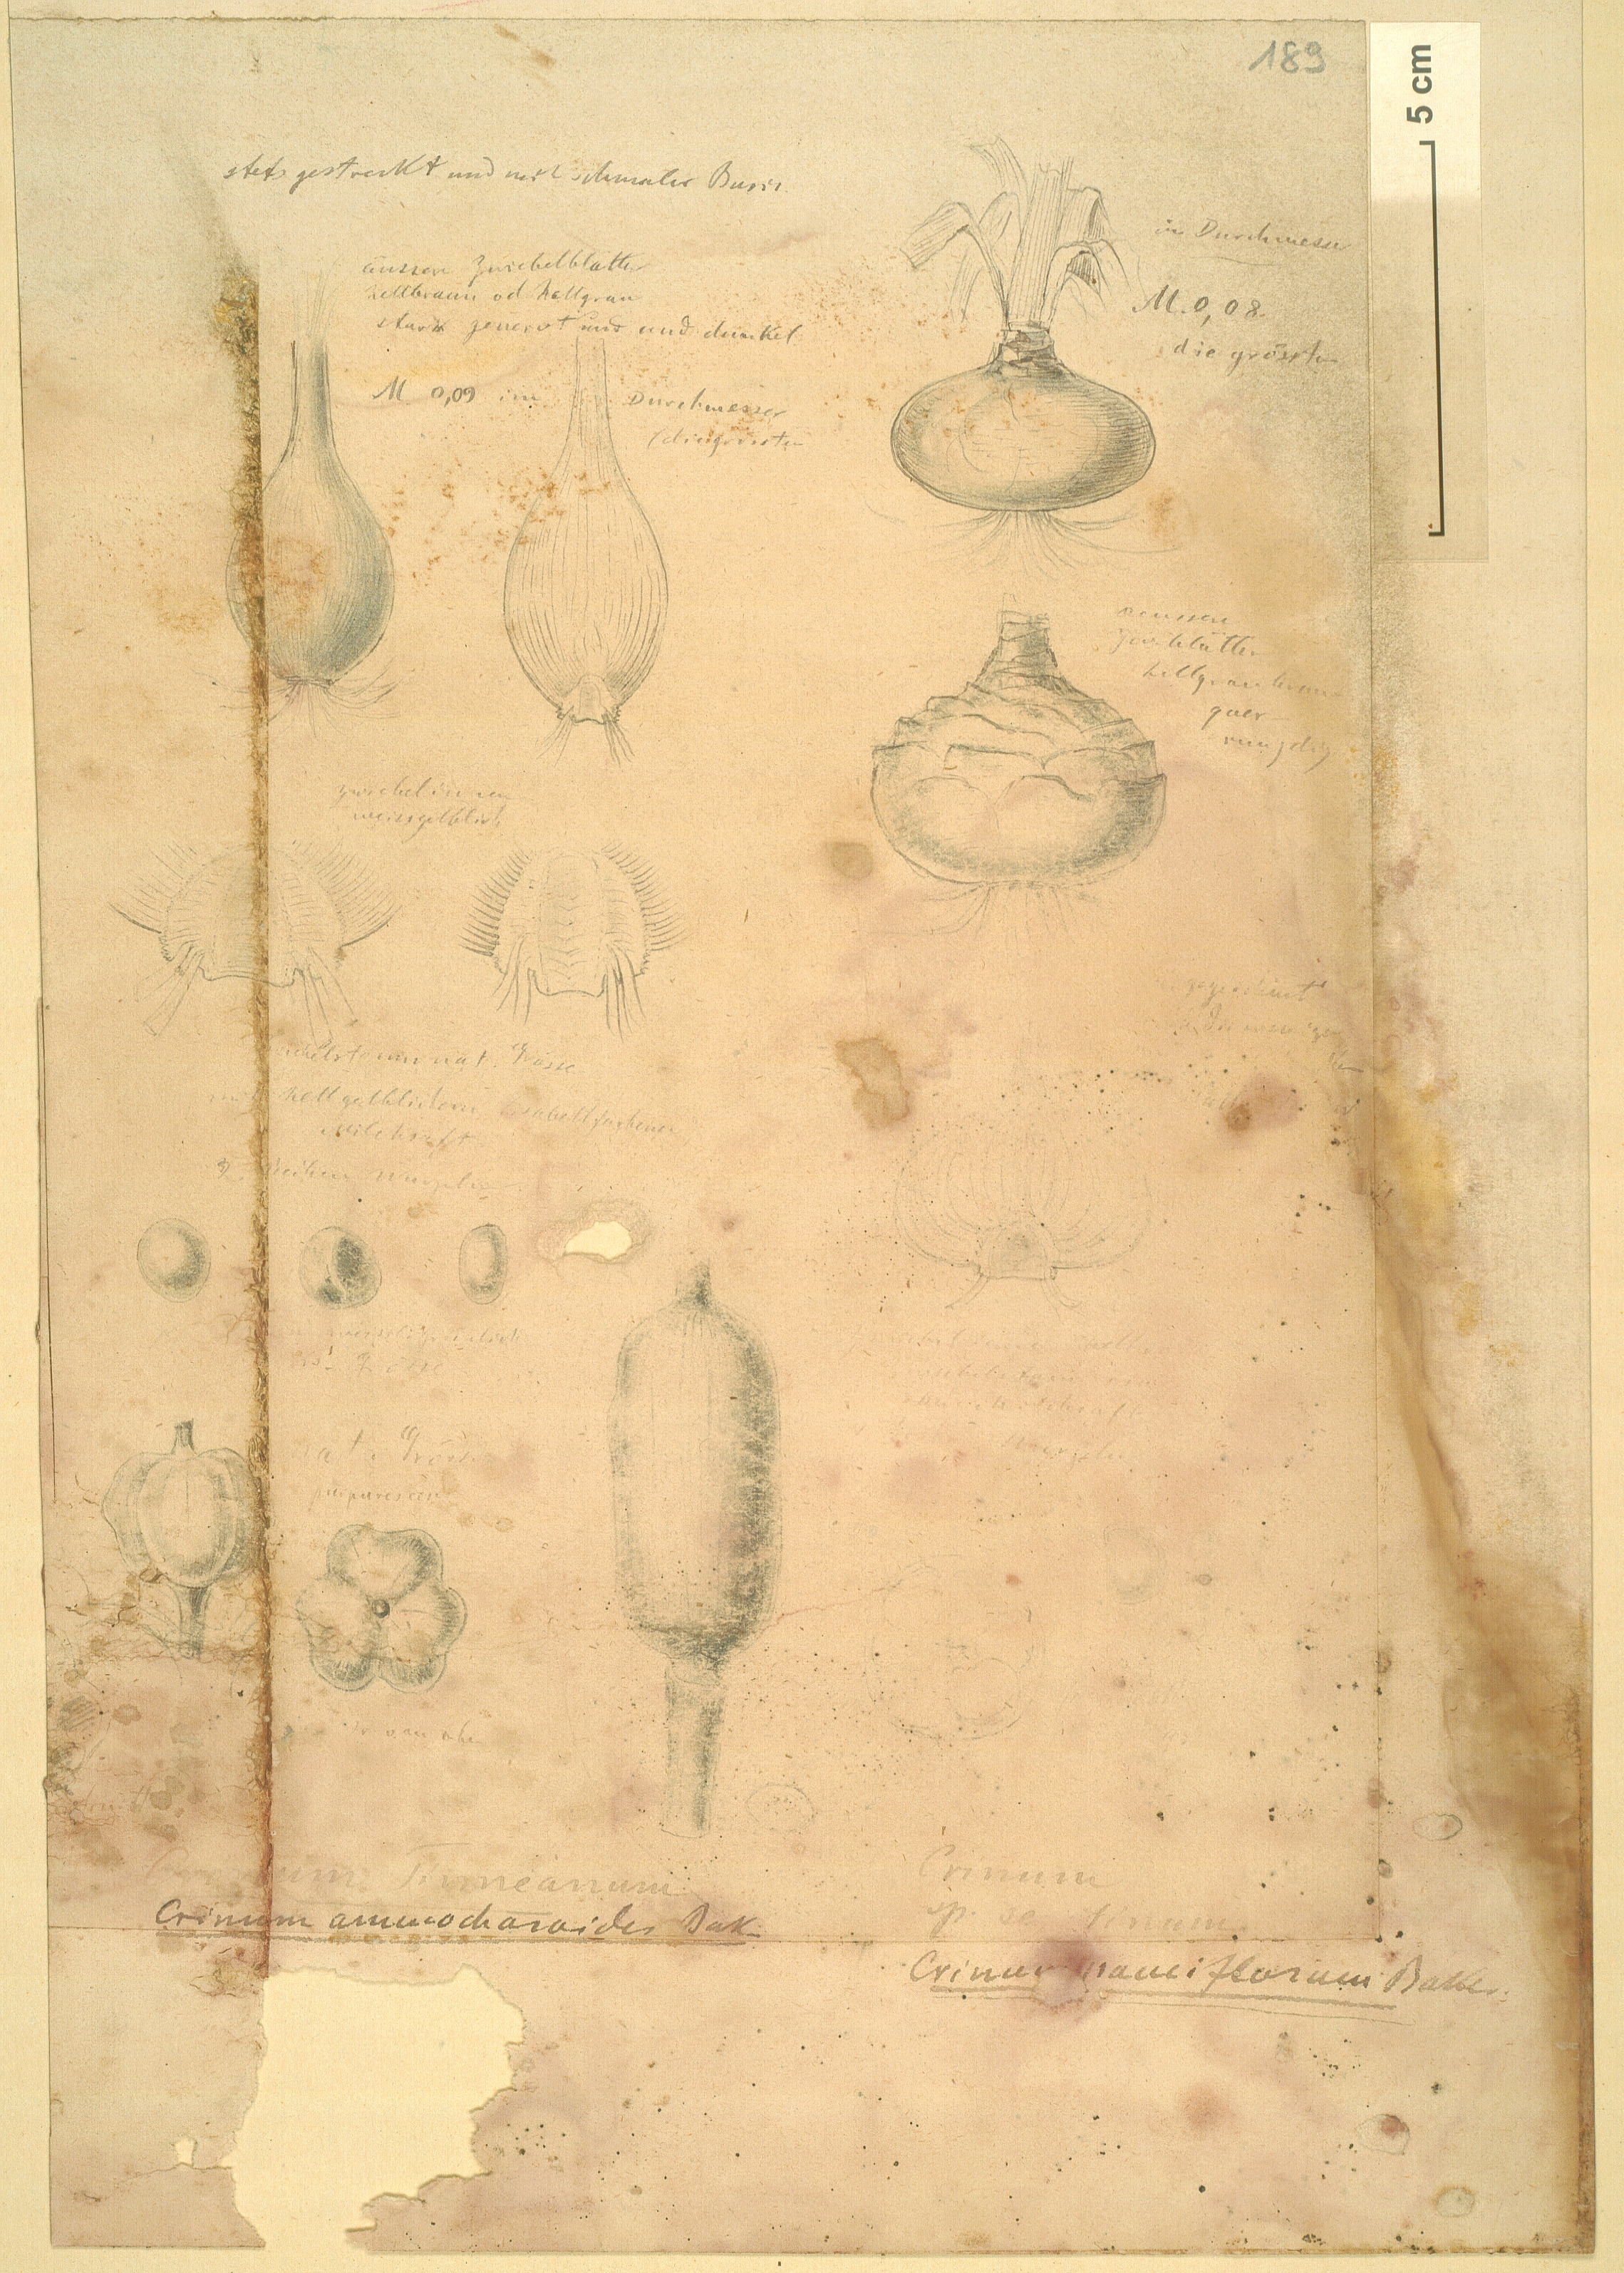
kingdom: Plantae
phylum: Tracheophyta
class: Liliopsida
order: Asparagales
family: Amaryllidaceae
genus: Ammocharis
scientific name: Ammocharis tinneana
